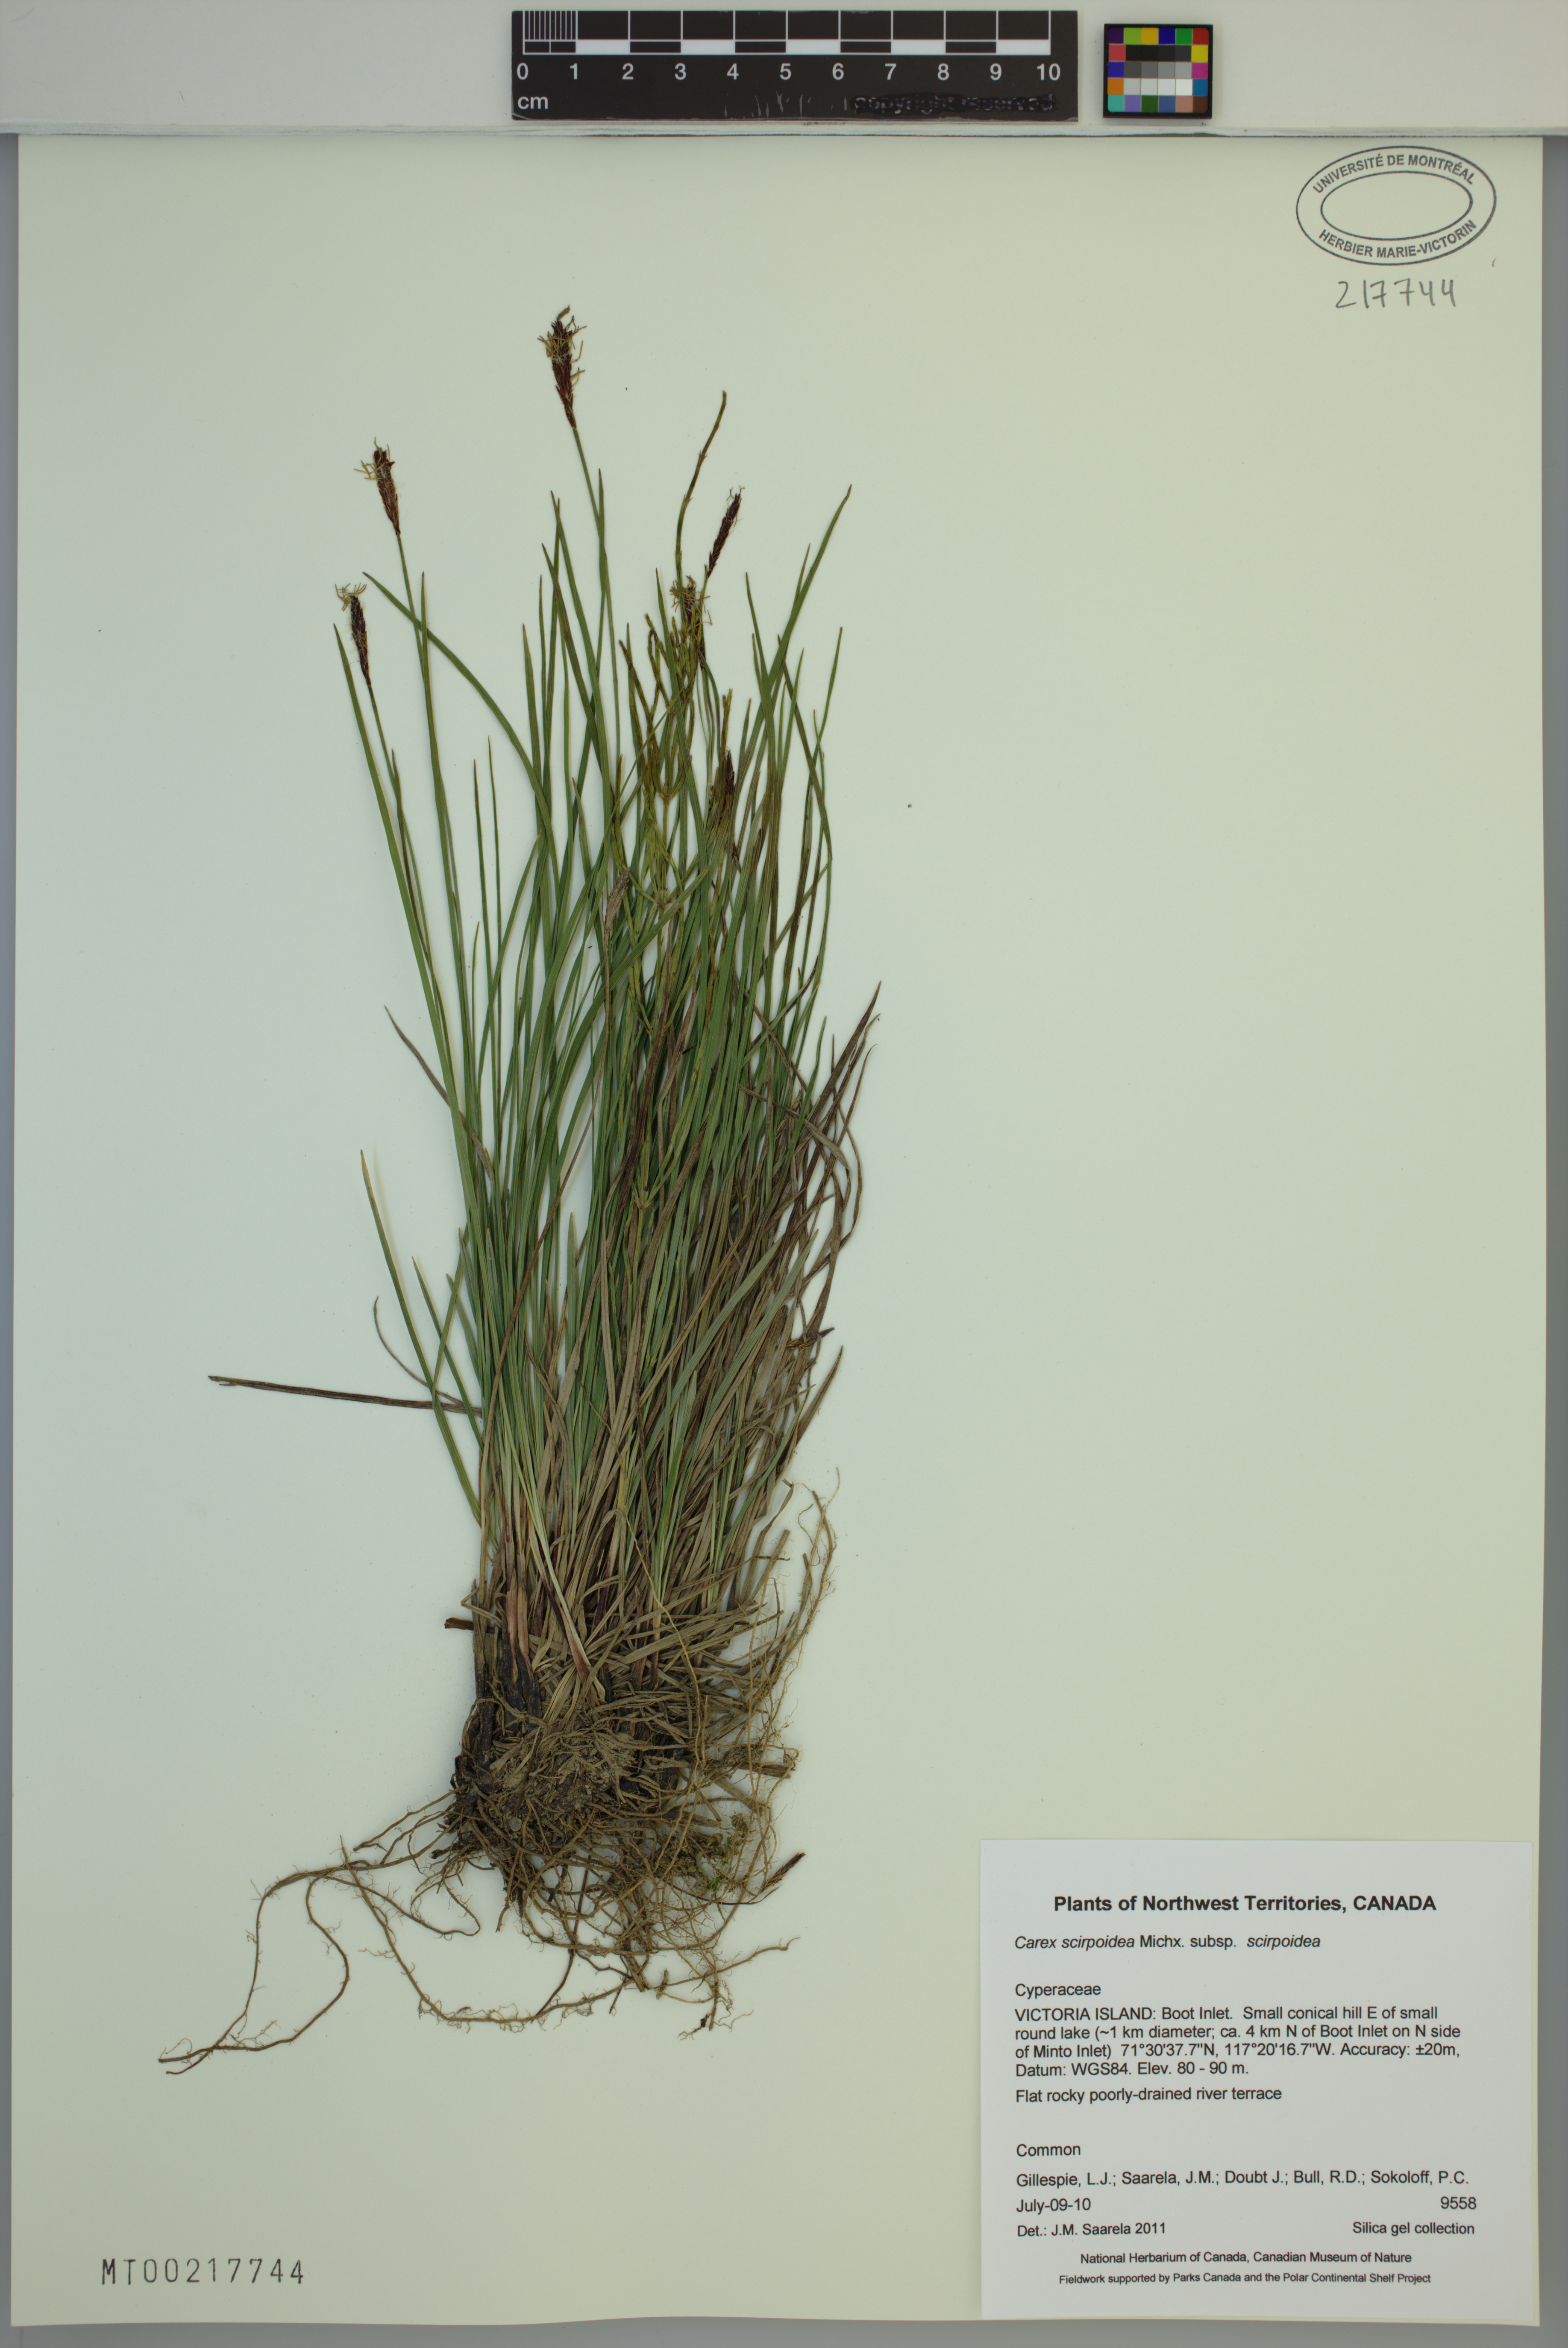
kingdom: Plantae
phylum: Tracheophyta
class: Liliopsida
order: Poales
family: Cyperaceae
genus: Carex
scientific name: Carex scirpoidea
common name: Canada single-spike sedge
